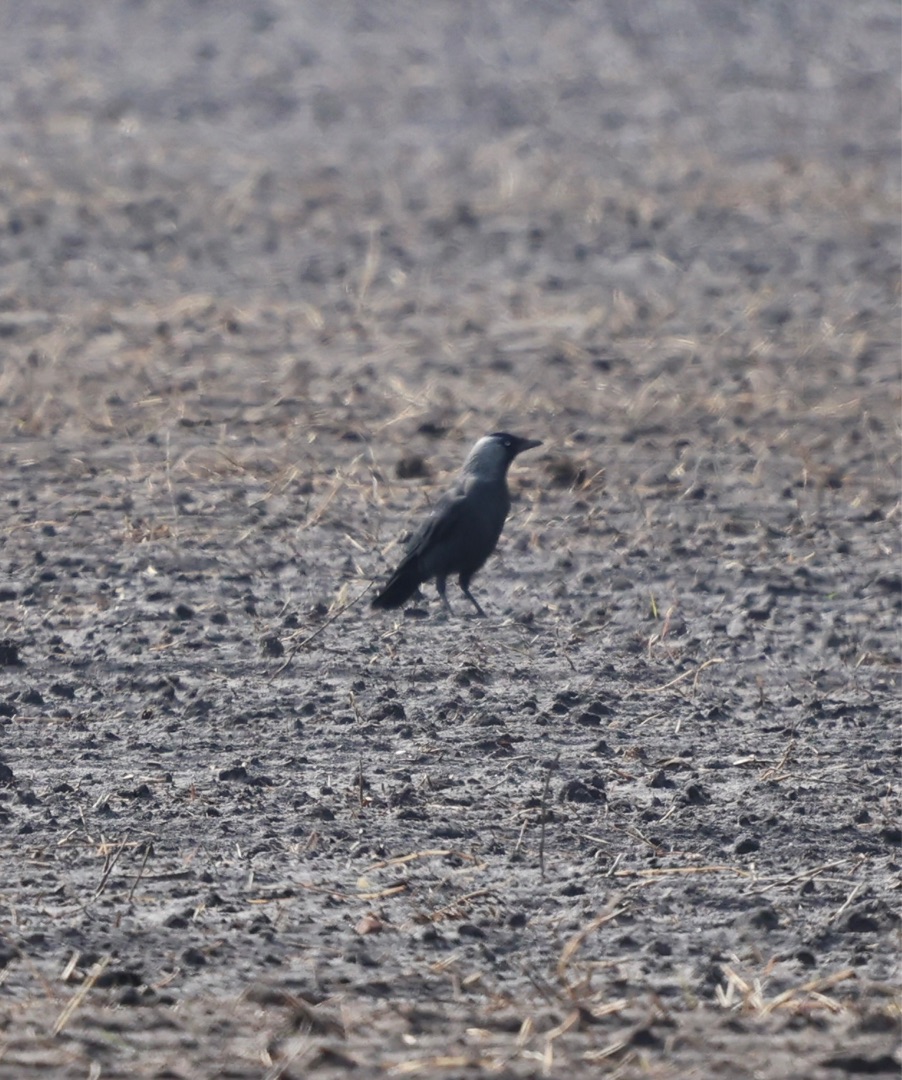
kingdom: Animalia
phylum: Chordata
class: Aves
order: Passeriformes
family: Corvidae
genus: Coloeus
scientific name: Coloeus monedula
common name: Allike
